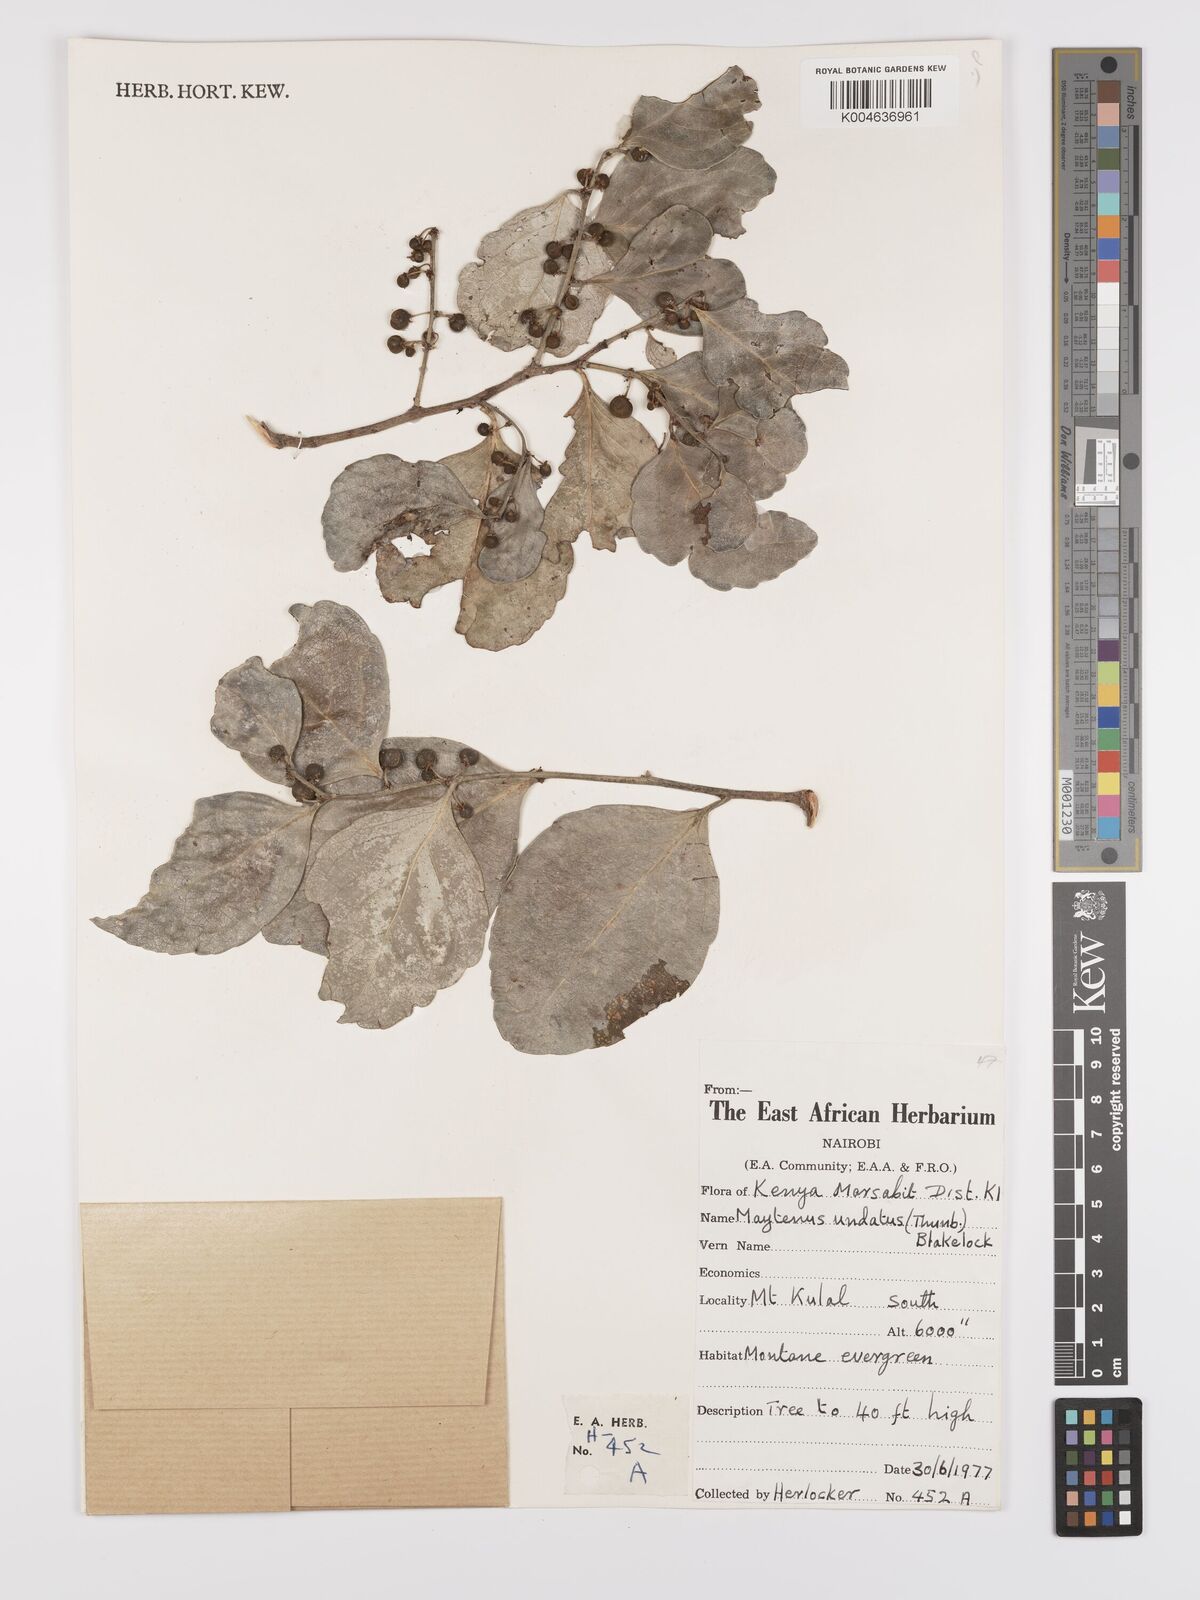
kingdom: Plantae
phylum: Tracheophyta
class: Magnoliopsida
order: Celastrales
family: Celastraceae
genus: Gymnosporia
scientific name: Gymnosporia undata
